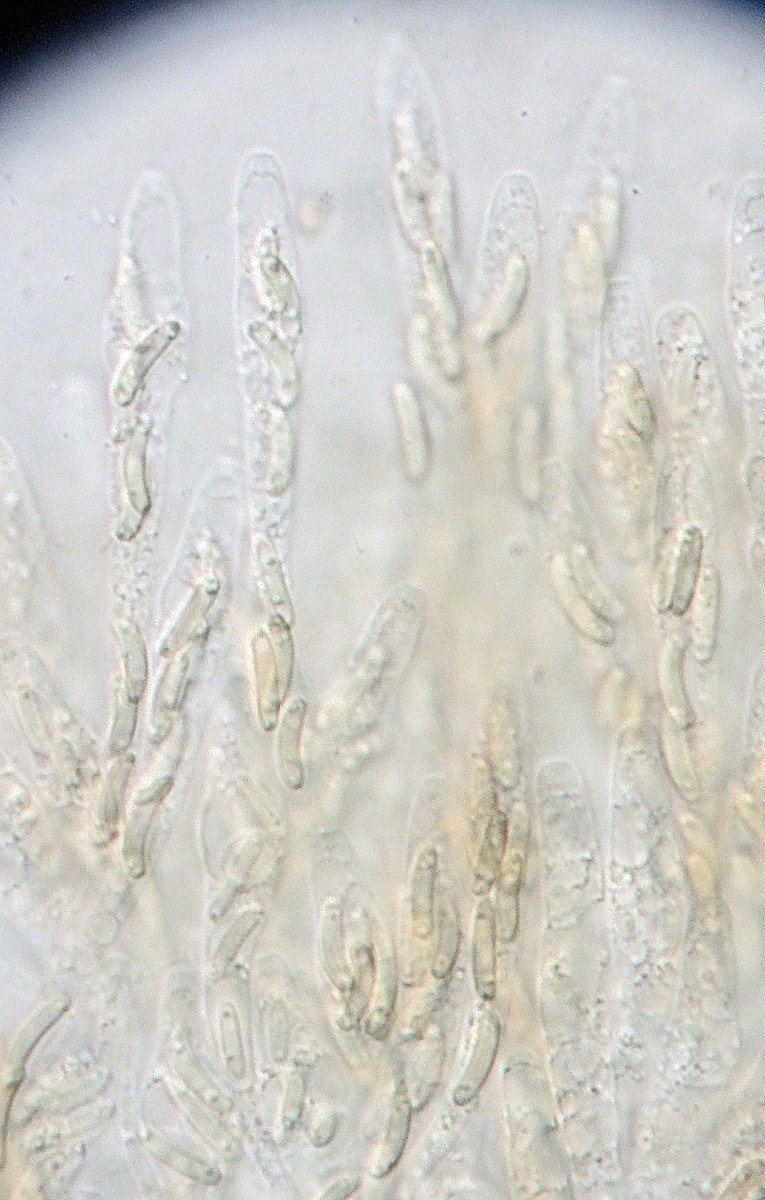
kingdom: Fungi
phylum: Ascomycota
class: Sordariomycetes
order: Xylariales
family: Diatrypaceae
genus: Eutypa
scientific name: Eutypa lata
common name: almindelig kulskorpe
